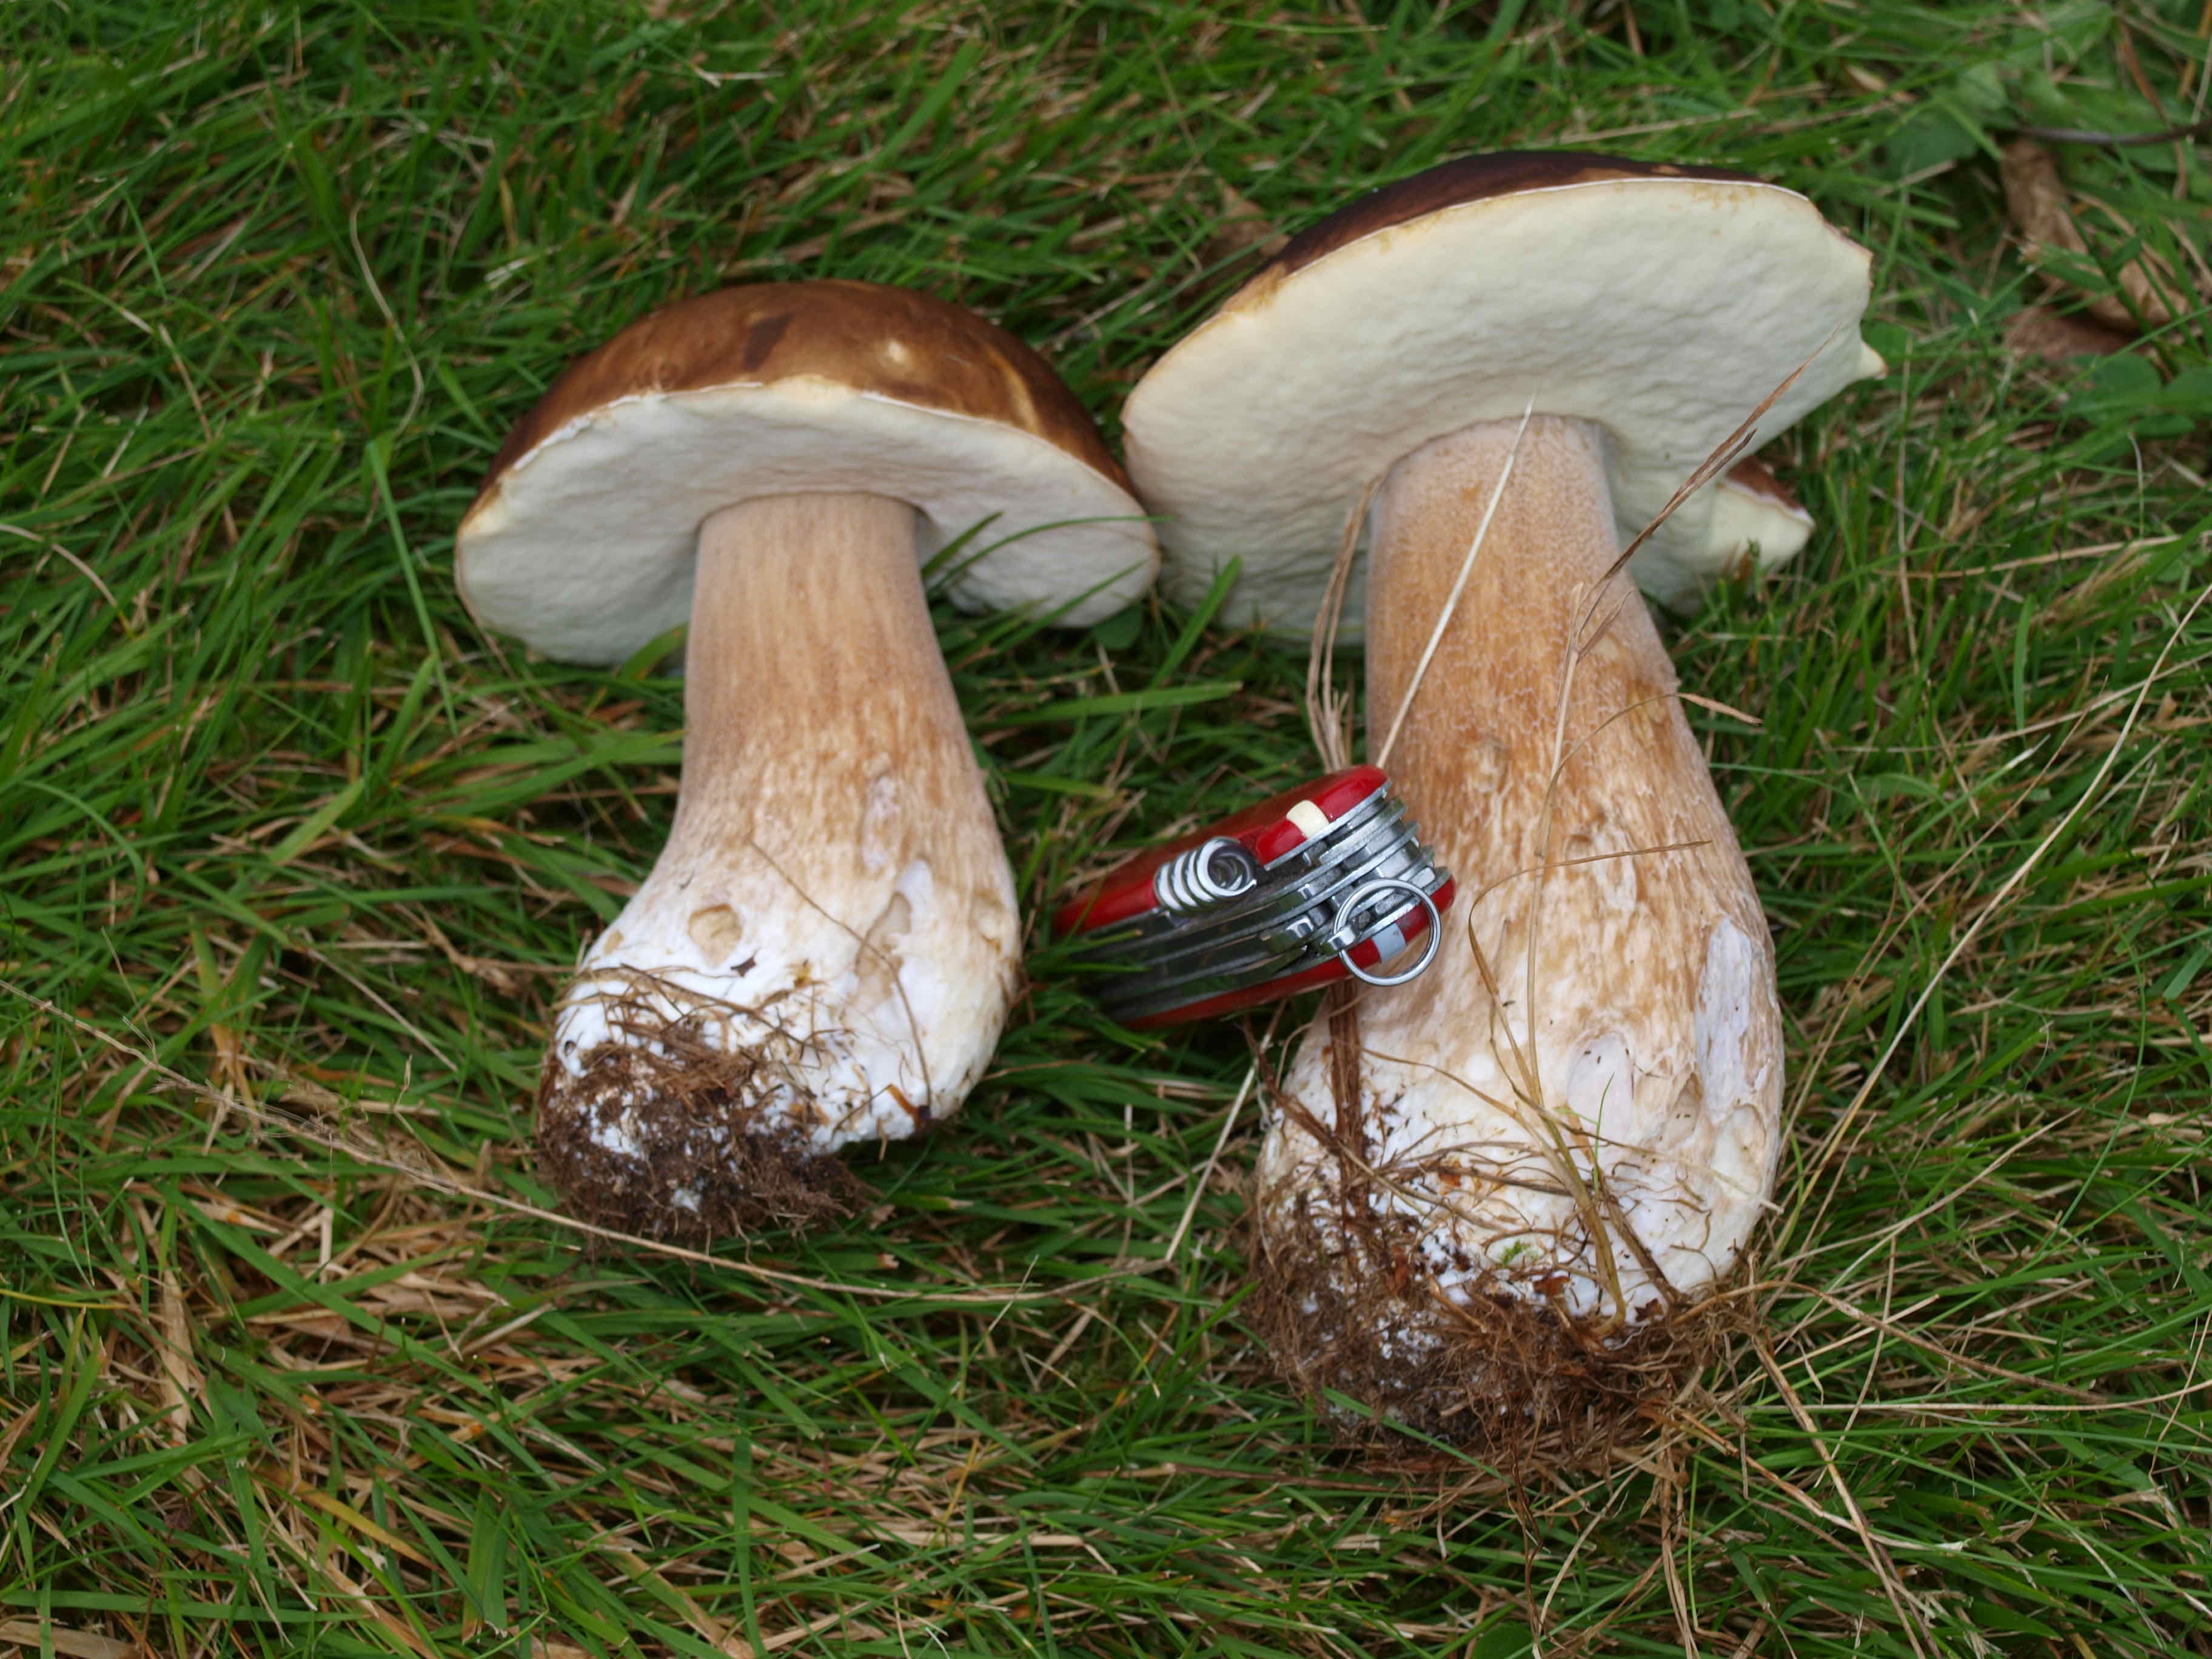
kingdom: Fungi
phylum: Basidiomycota
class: Agaricomycetes
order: Boletales
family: Boletaceae
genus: Boletus
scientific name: Boletus edulis
